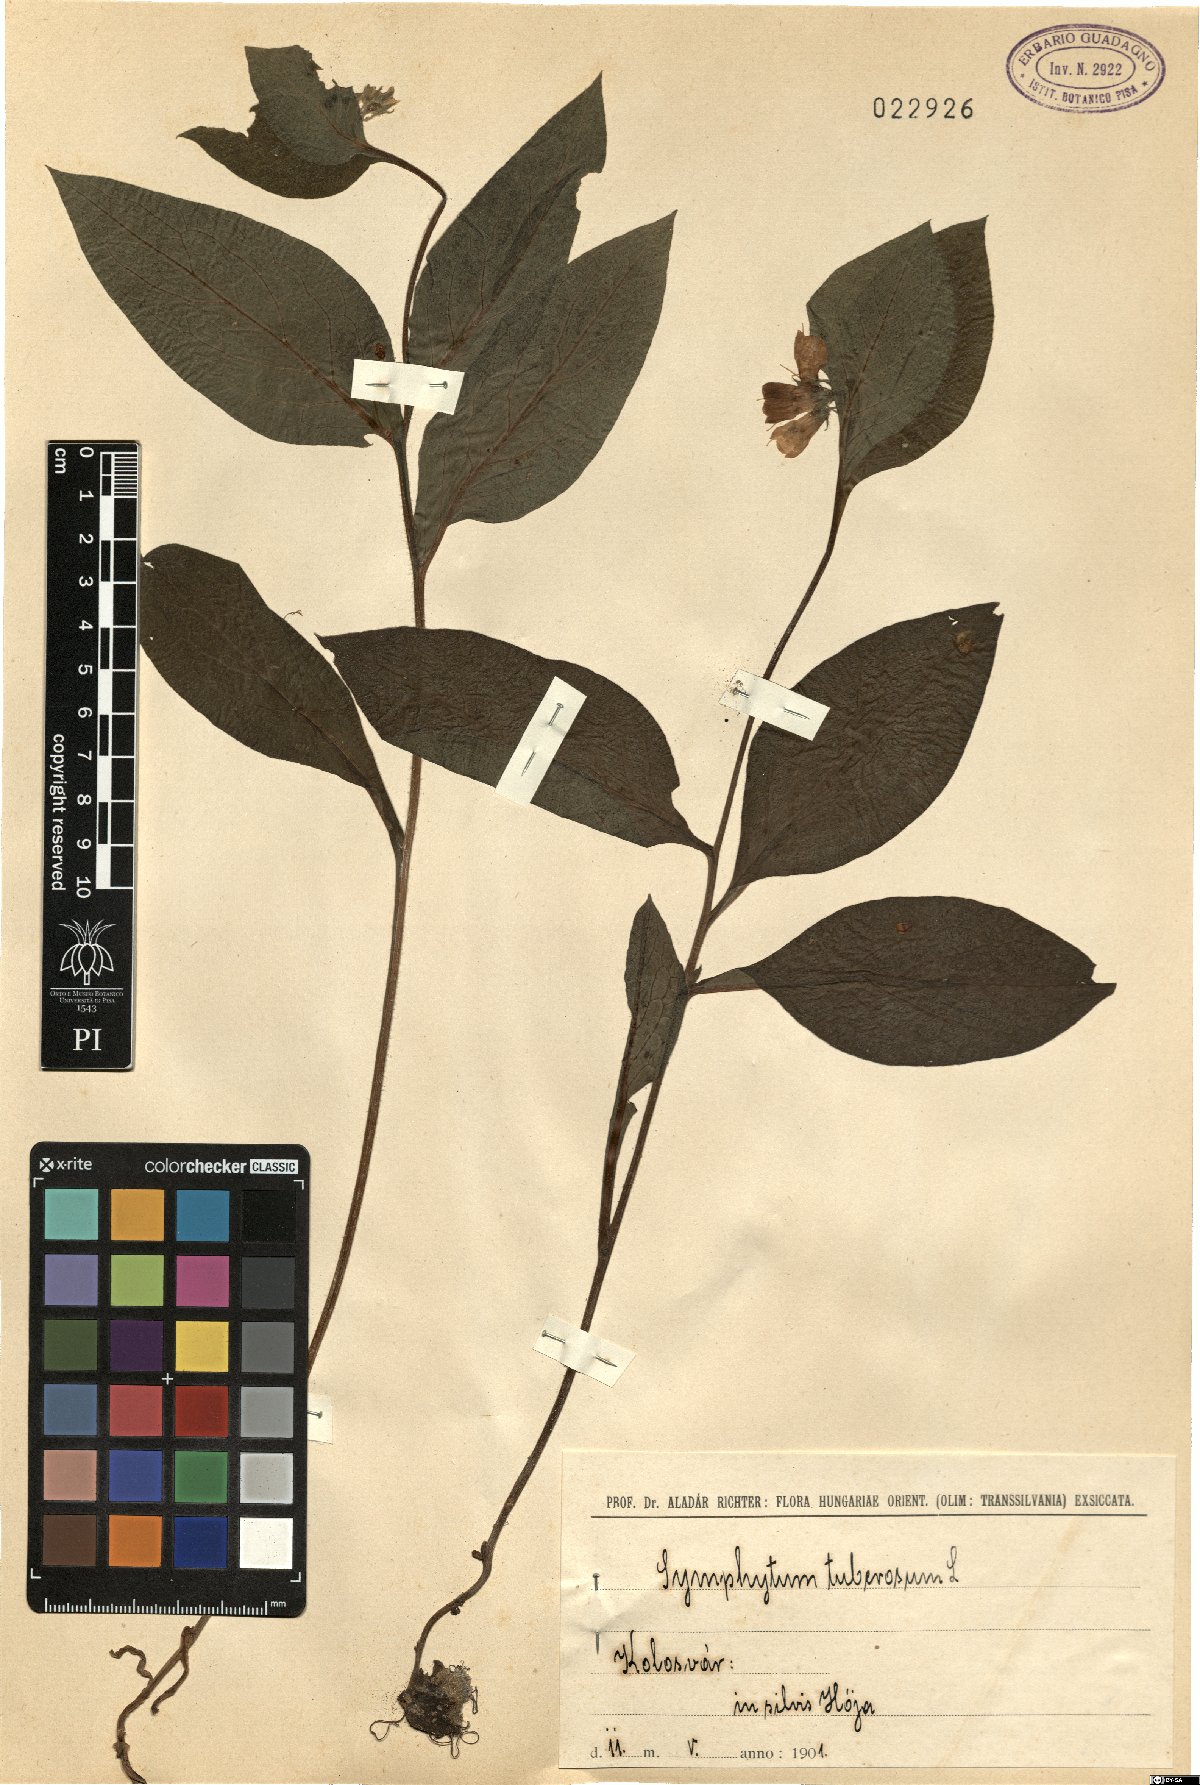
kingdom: Plantae
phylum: Tracheophyta
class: Magnoliopsida
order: Boraginales
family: Boraginaceae
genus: Symphytum
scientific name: Symphytum tuberosum
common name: Tuberous comfrey
